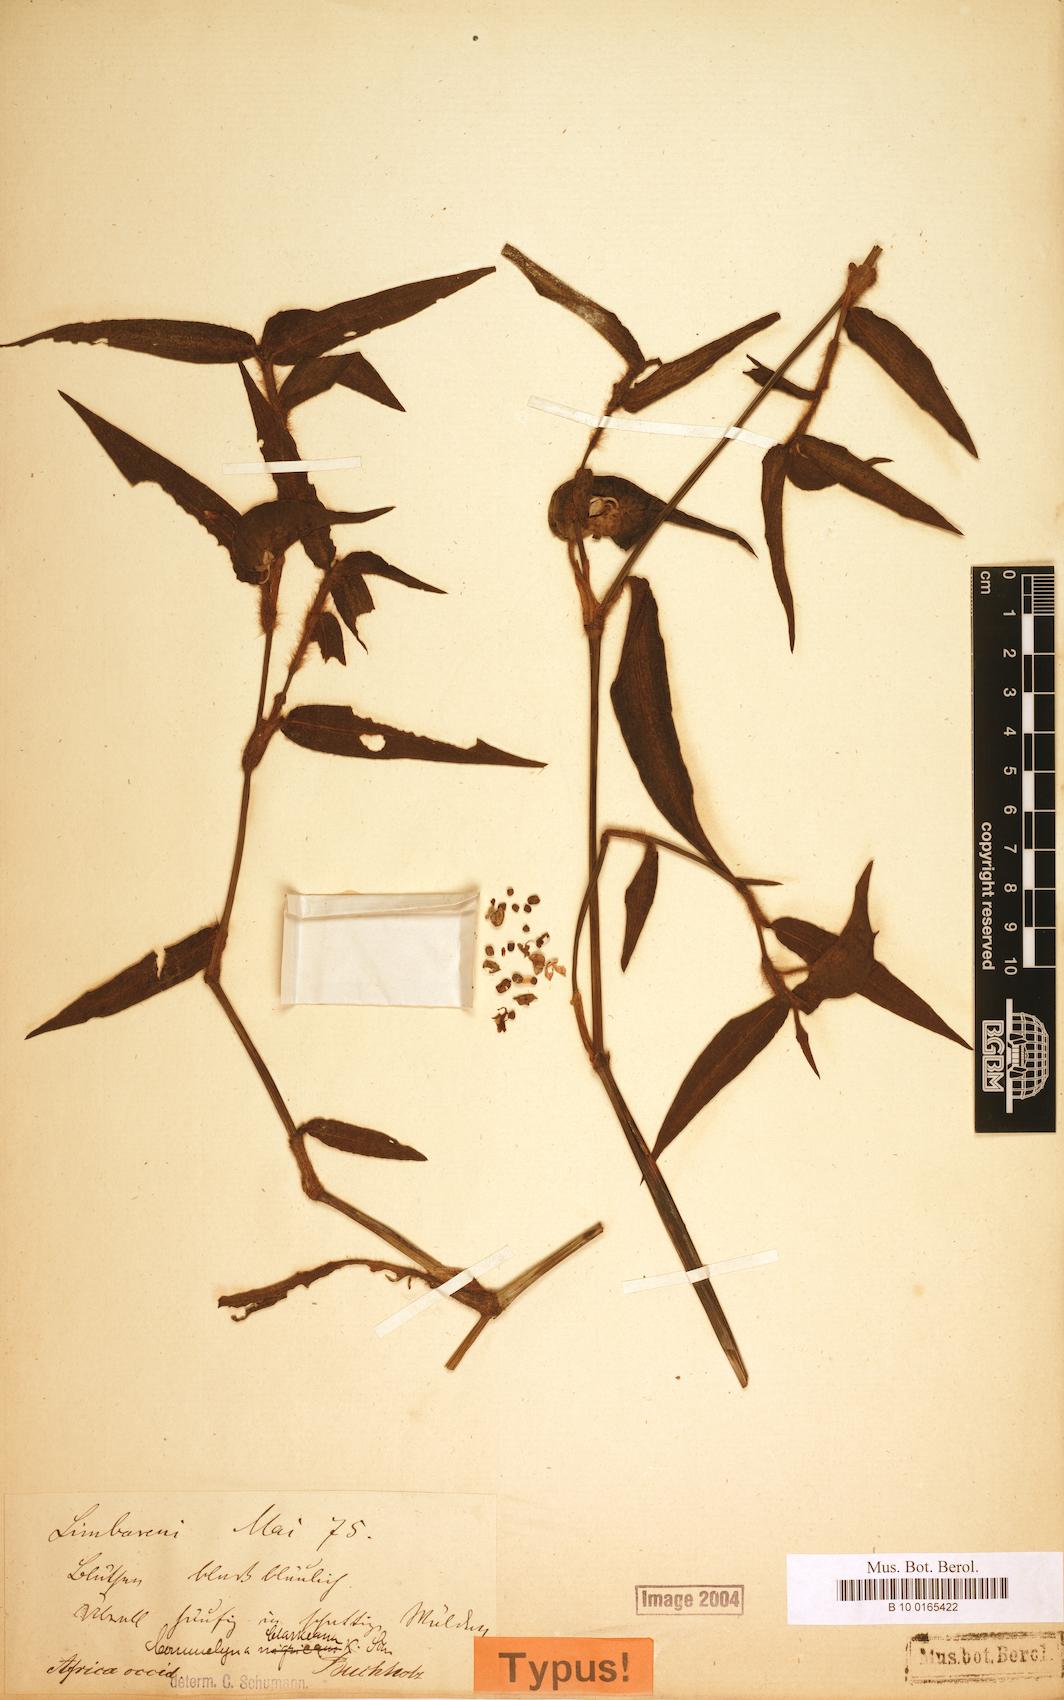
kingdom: Plantae
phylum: Tracheophyta
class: Liliopsida
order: Commelinales
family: Commelinaceae
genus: Commelina
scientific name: Commelina acutispatha
